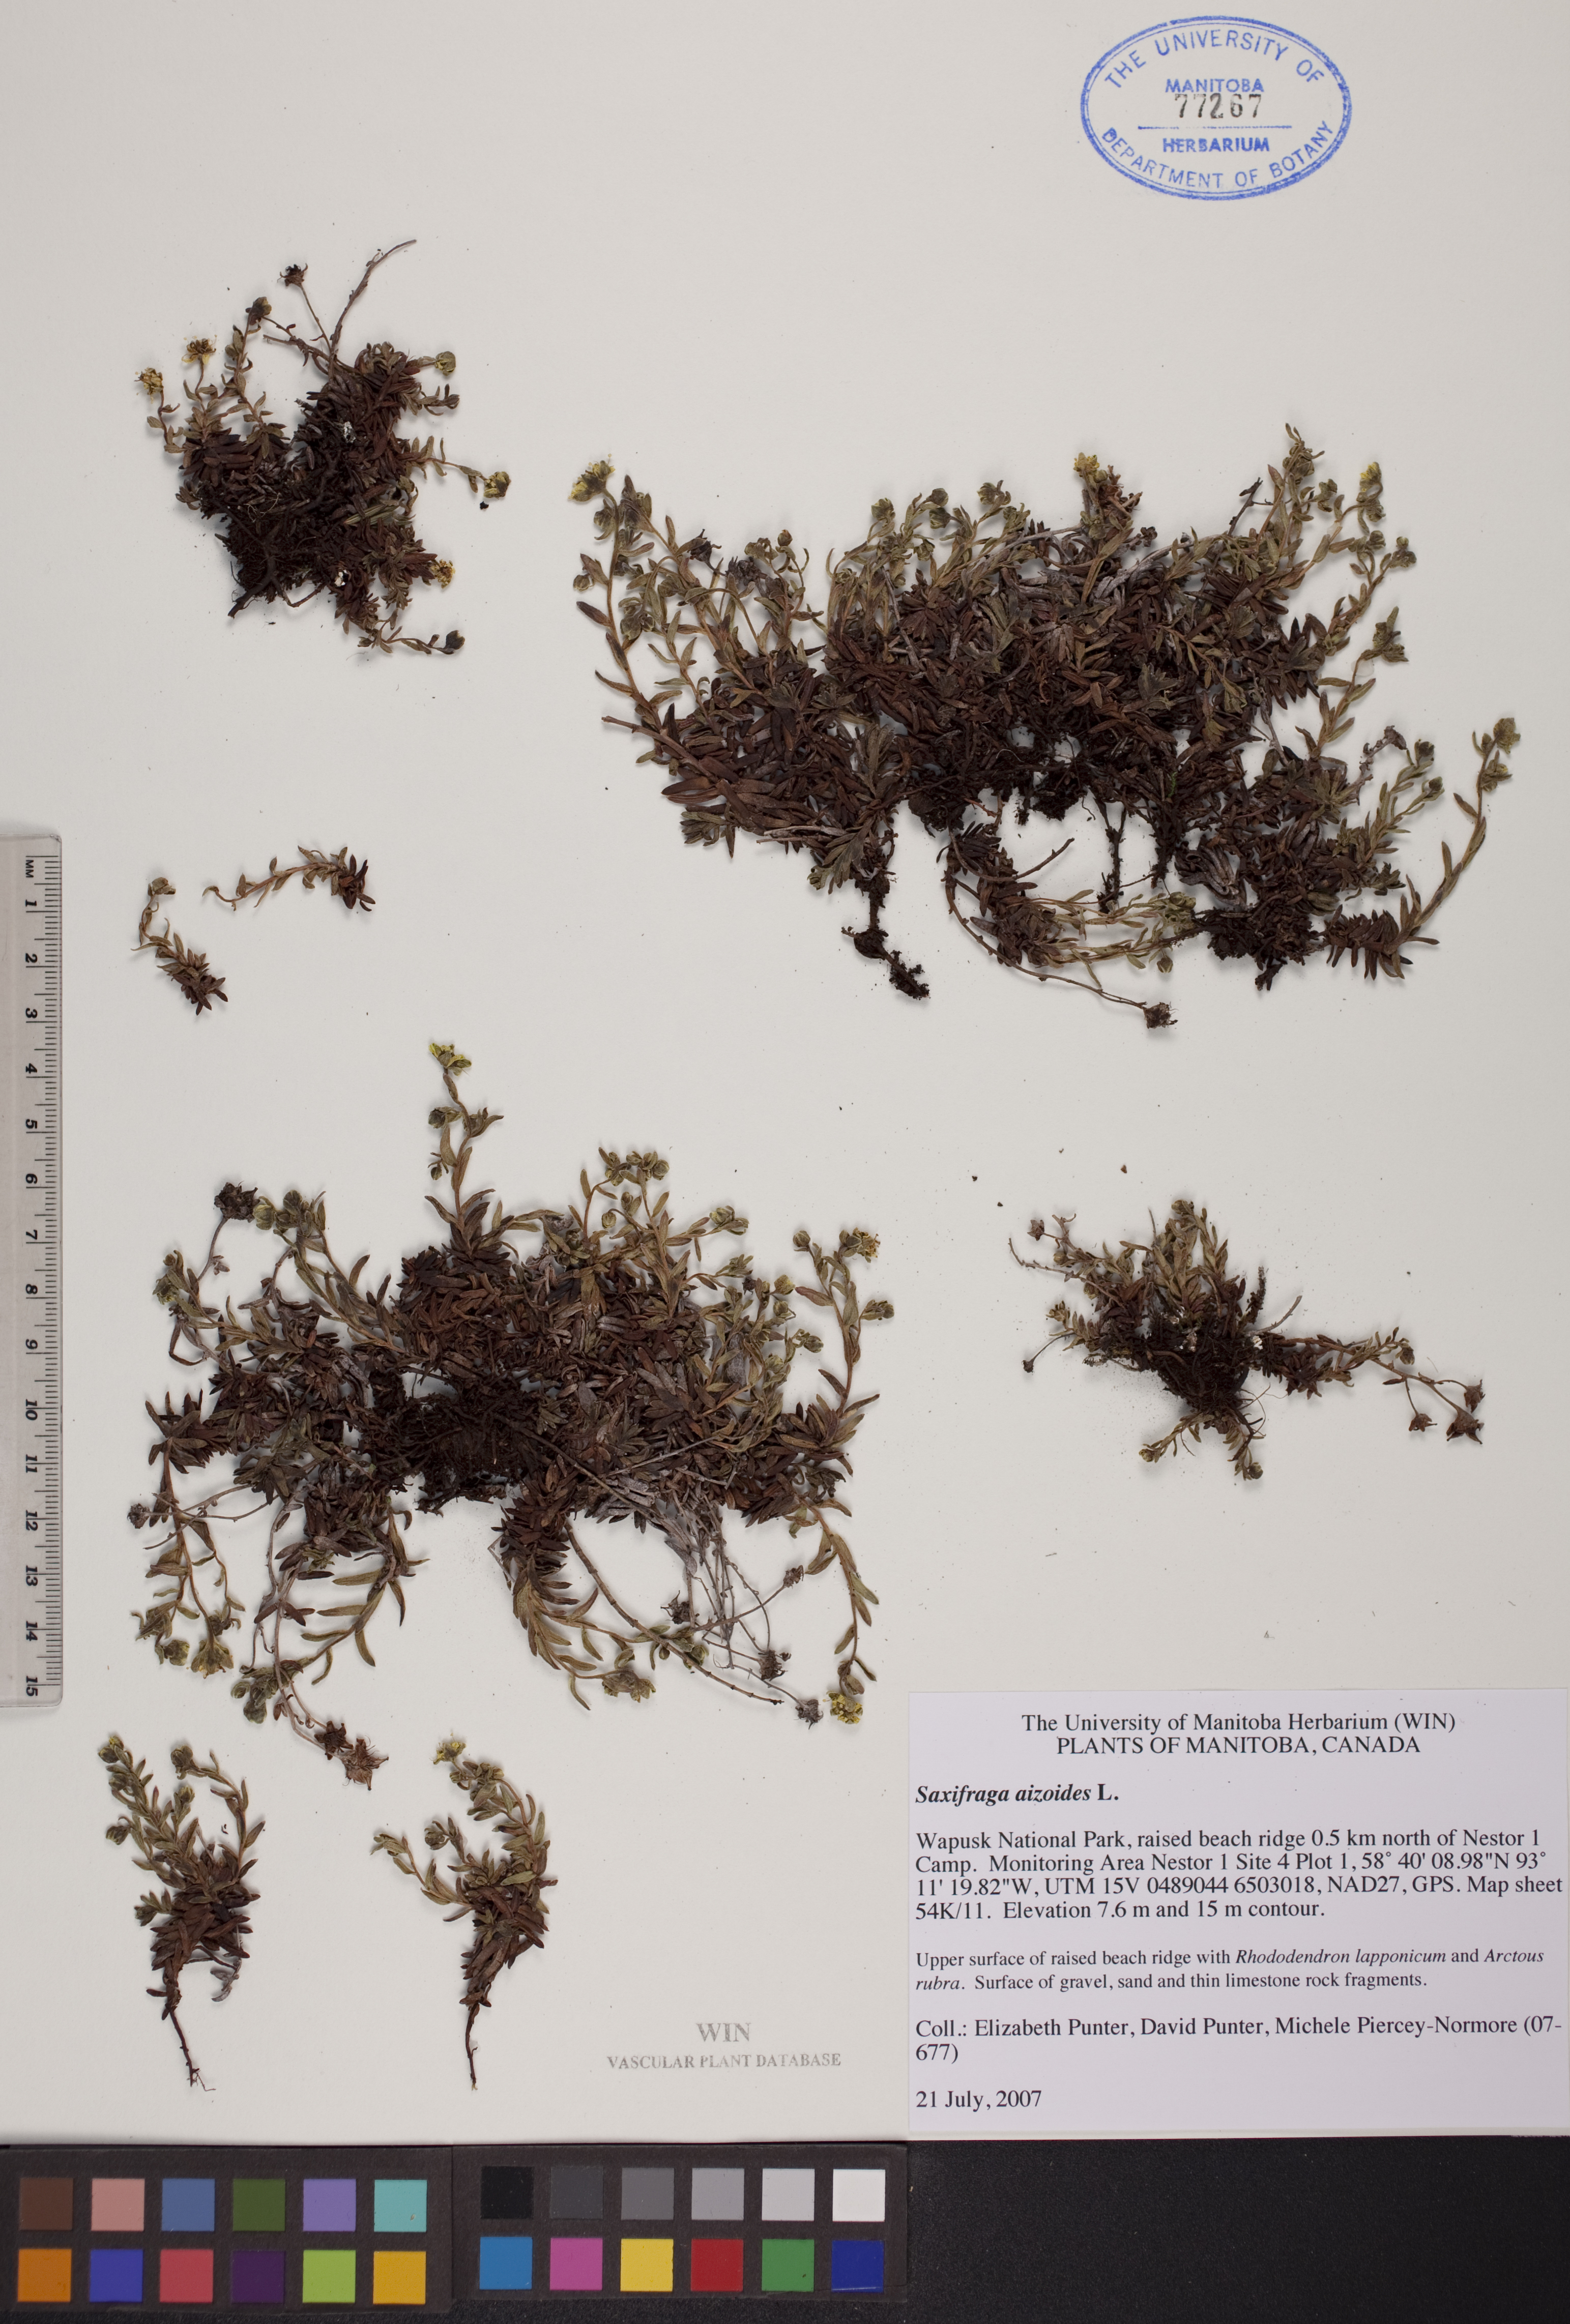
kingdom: Plantae
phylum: Tracheophyta
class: Magnoliopsida
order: Saxifragales
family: Saxifragaceae
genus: Saxifraga
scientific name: Saxifraga aizoides
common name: Yellow mountain saxifrage
